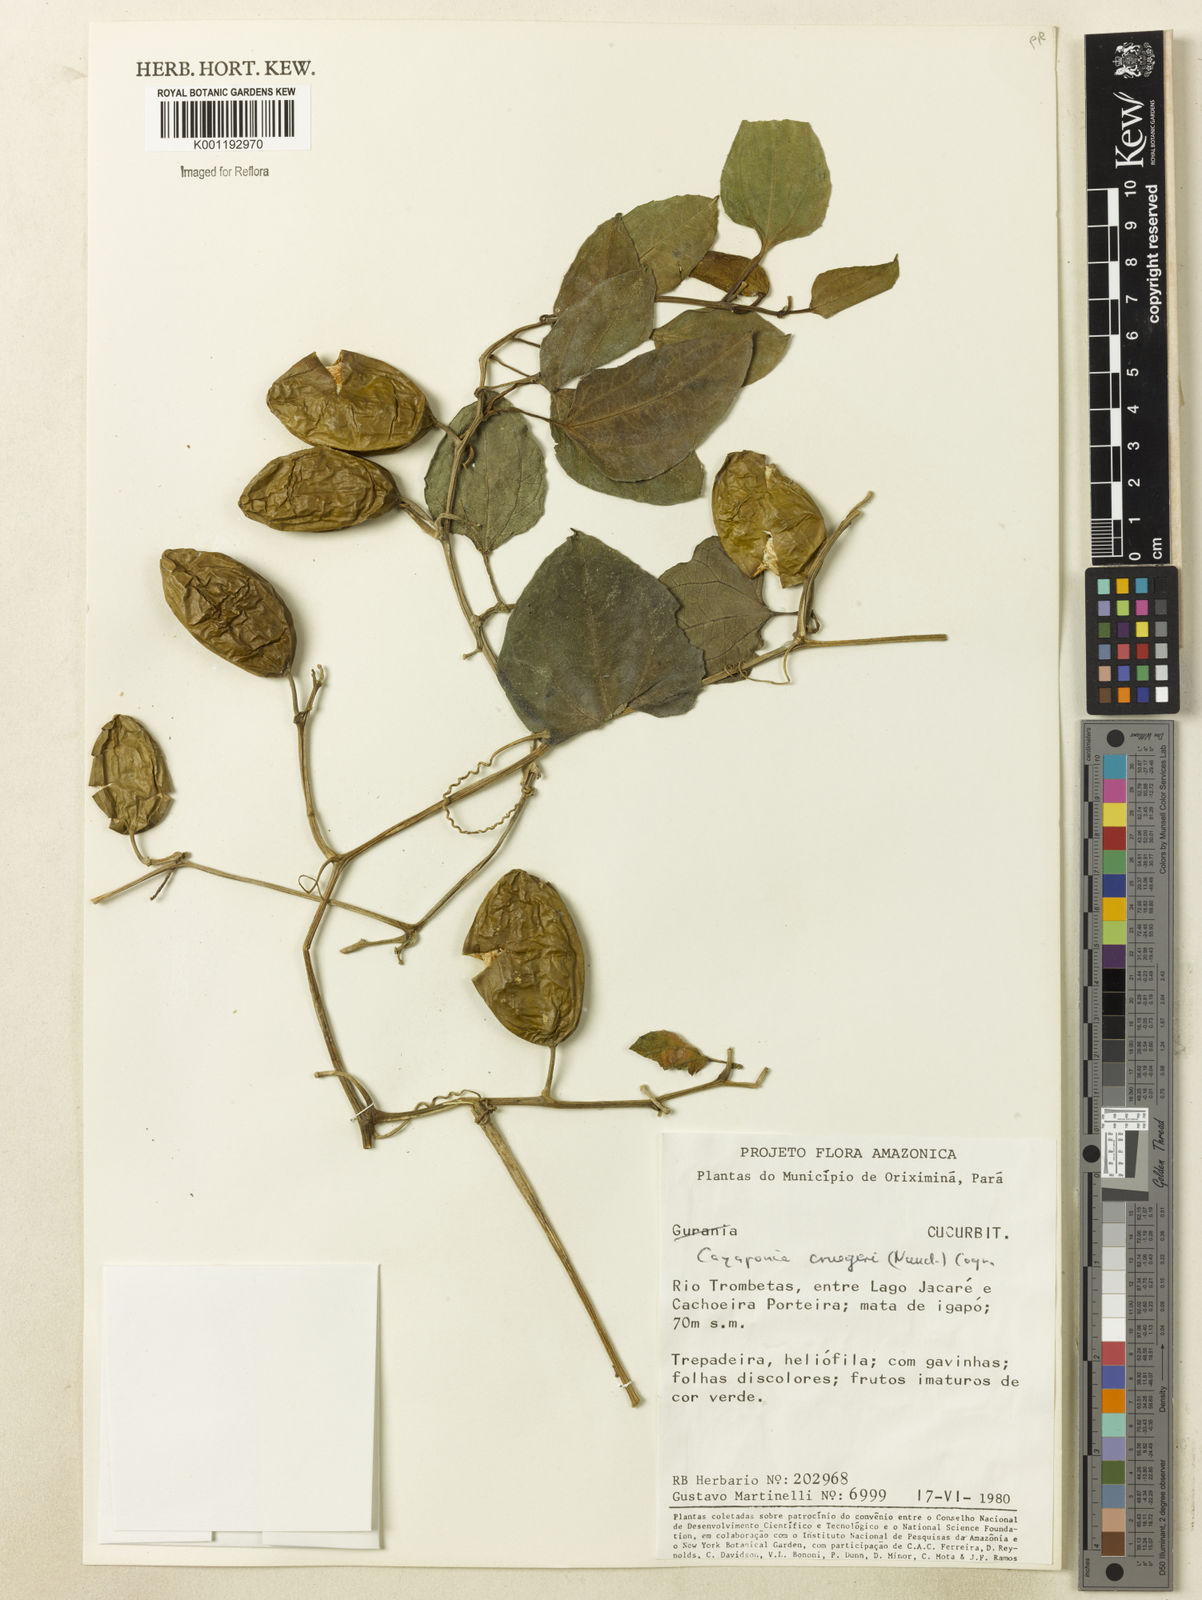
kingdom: Plantae
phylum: Tracheophyta
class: Magnoliopsida
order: Cucurbitales
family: Cucurbitaceae
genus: Cayaponia
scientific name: Cayaponia cruegeri
